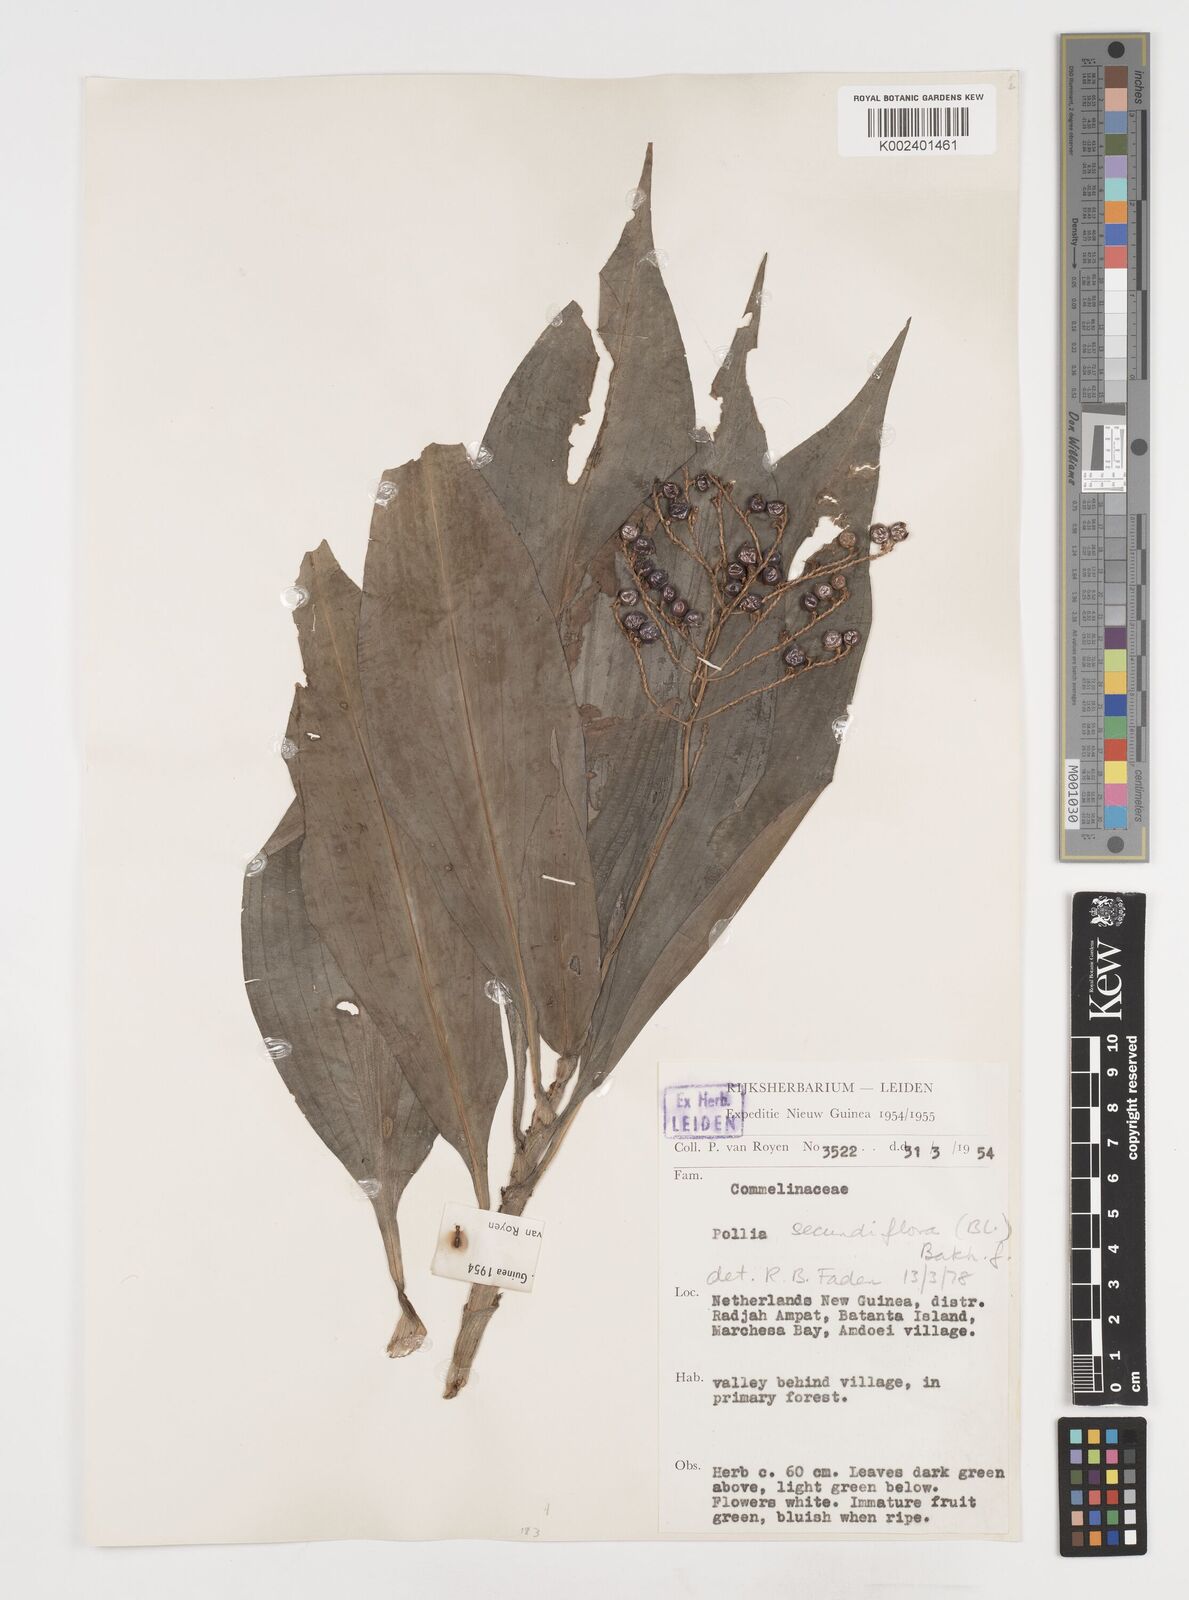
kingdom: Plantae
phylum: Tracheophyta
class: Liliopsida
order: Commelinales
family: Commelinaceae
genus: Pollia
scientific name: Pollia secundiflora
